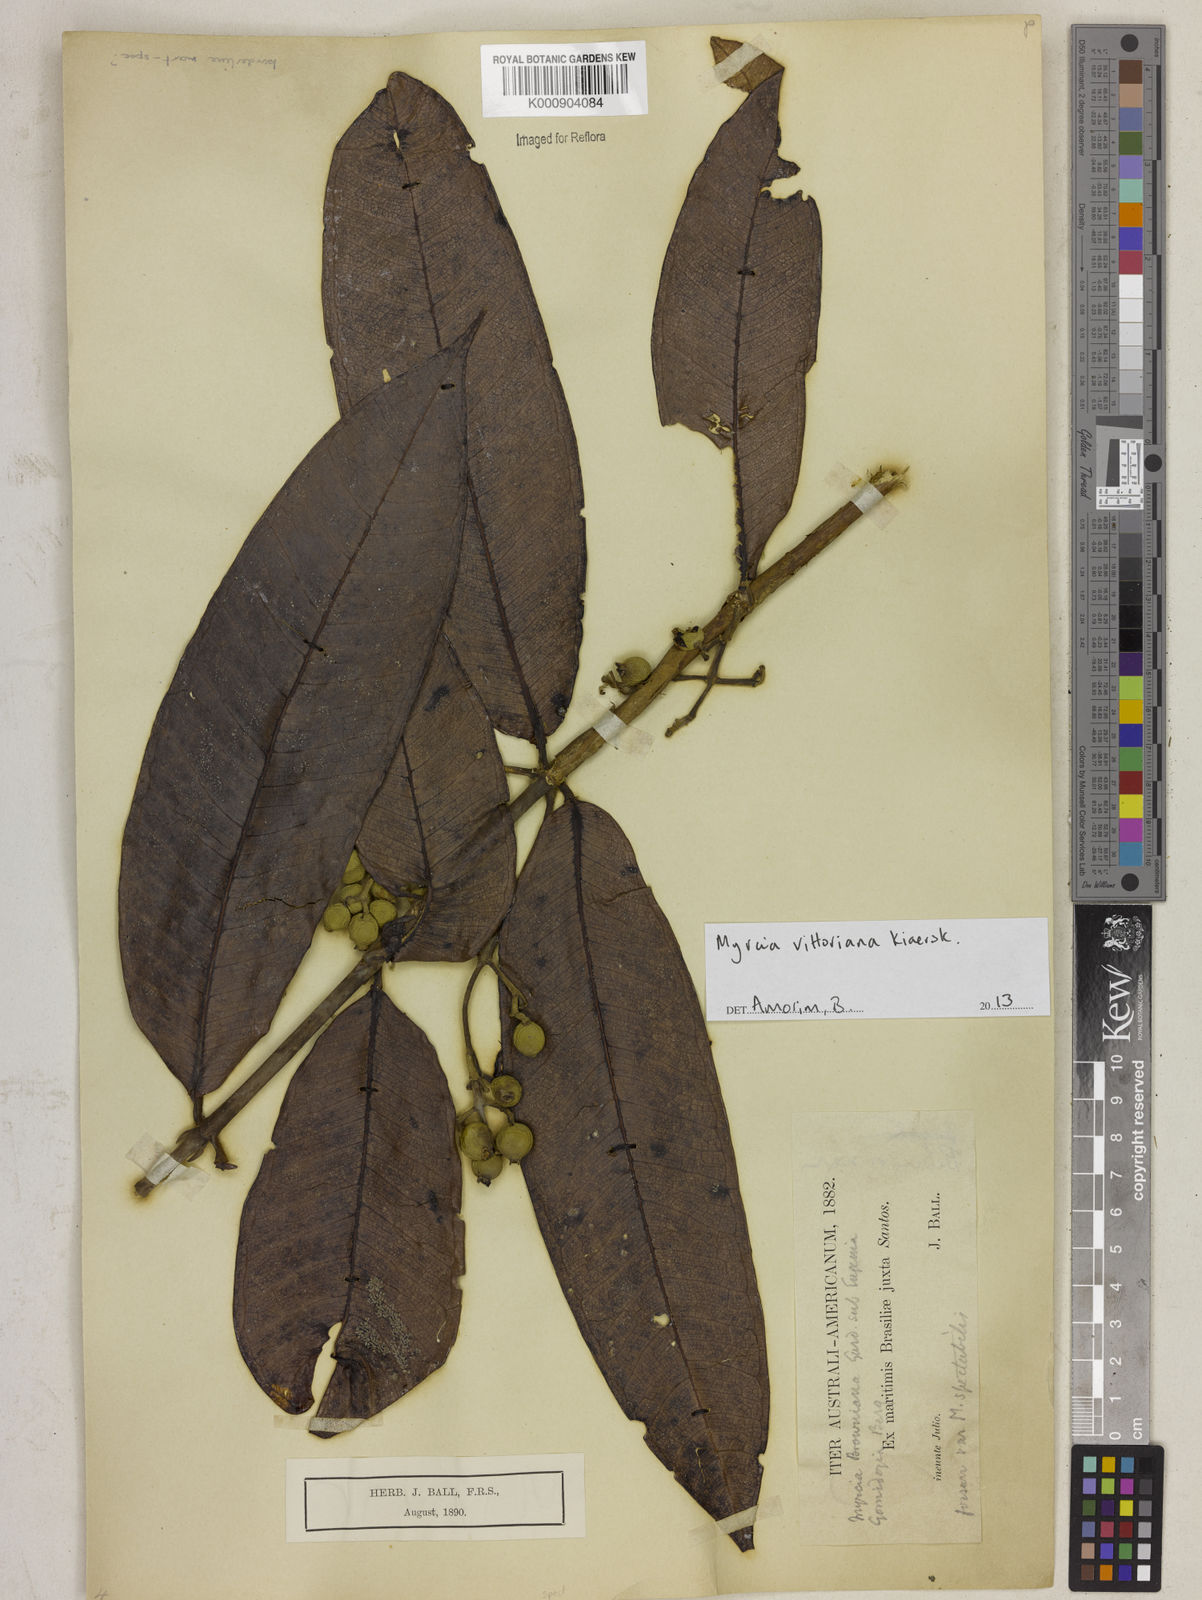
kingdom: Plantae
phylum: Tracheophyta
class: Magnoliopsida
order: Myrtales
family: Myrtaceae
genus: Myrcia
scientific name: Myrcia spectabilis
